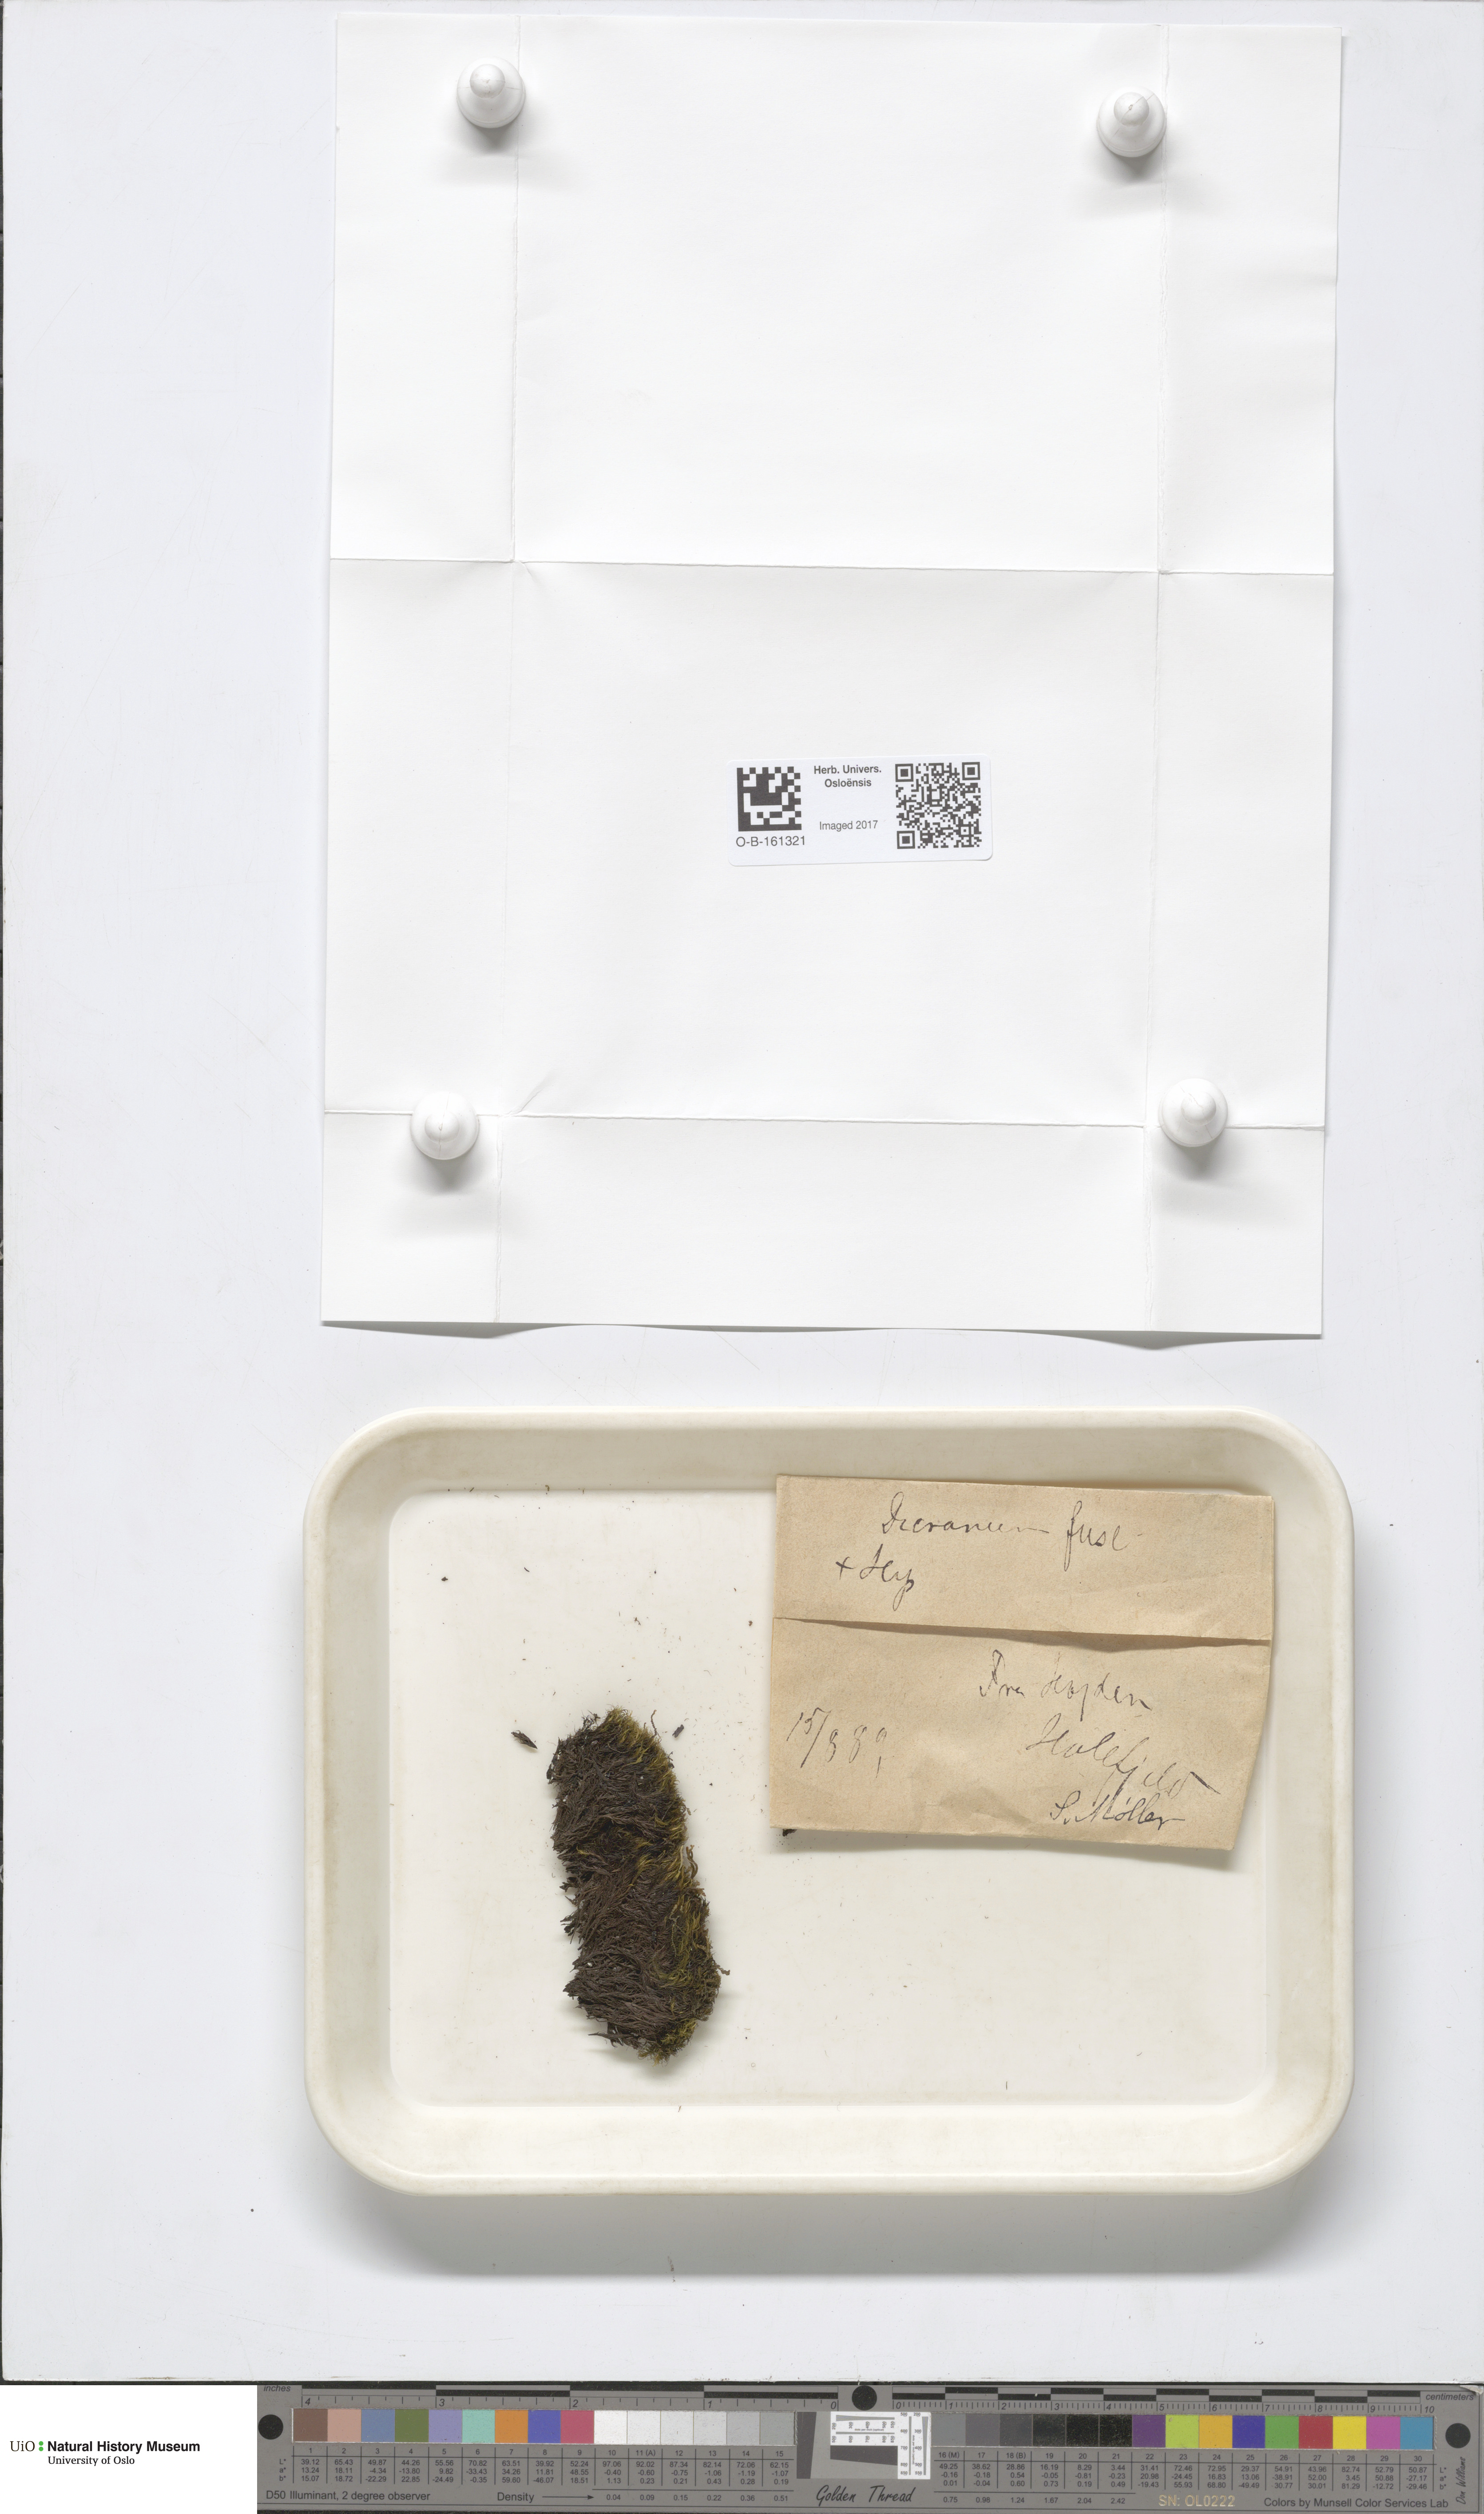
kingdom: Plantae
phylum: Bryophyta
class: Bryopsida
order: Dicranales
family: Dicranaceae
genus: Dicranum
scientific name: Dicranum fuscescens
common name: Curly heron's-bill moss
